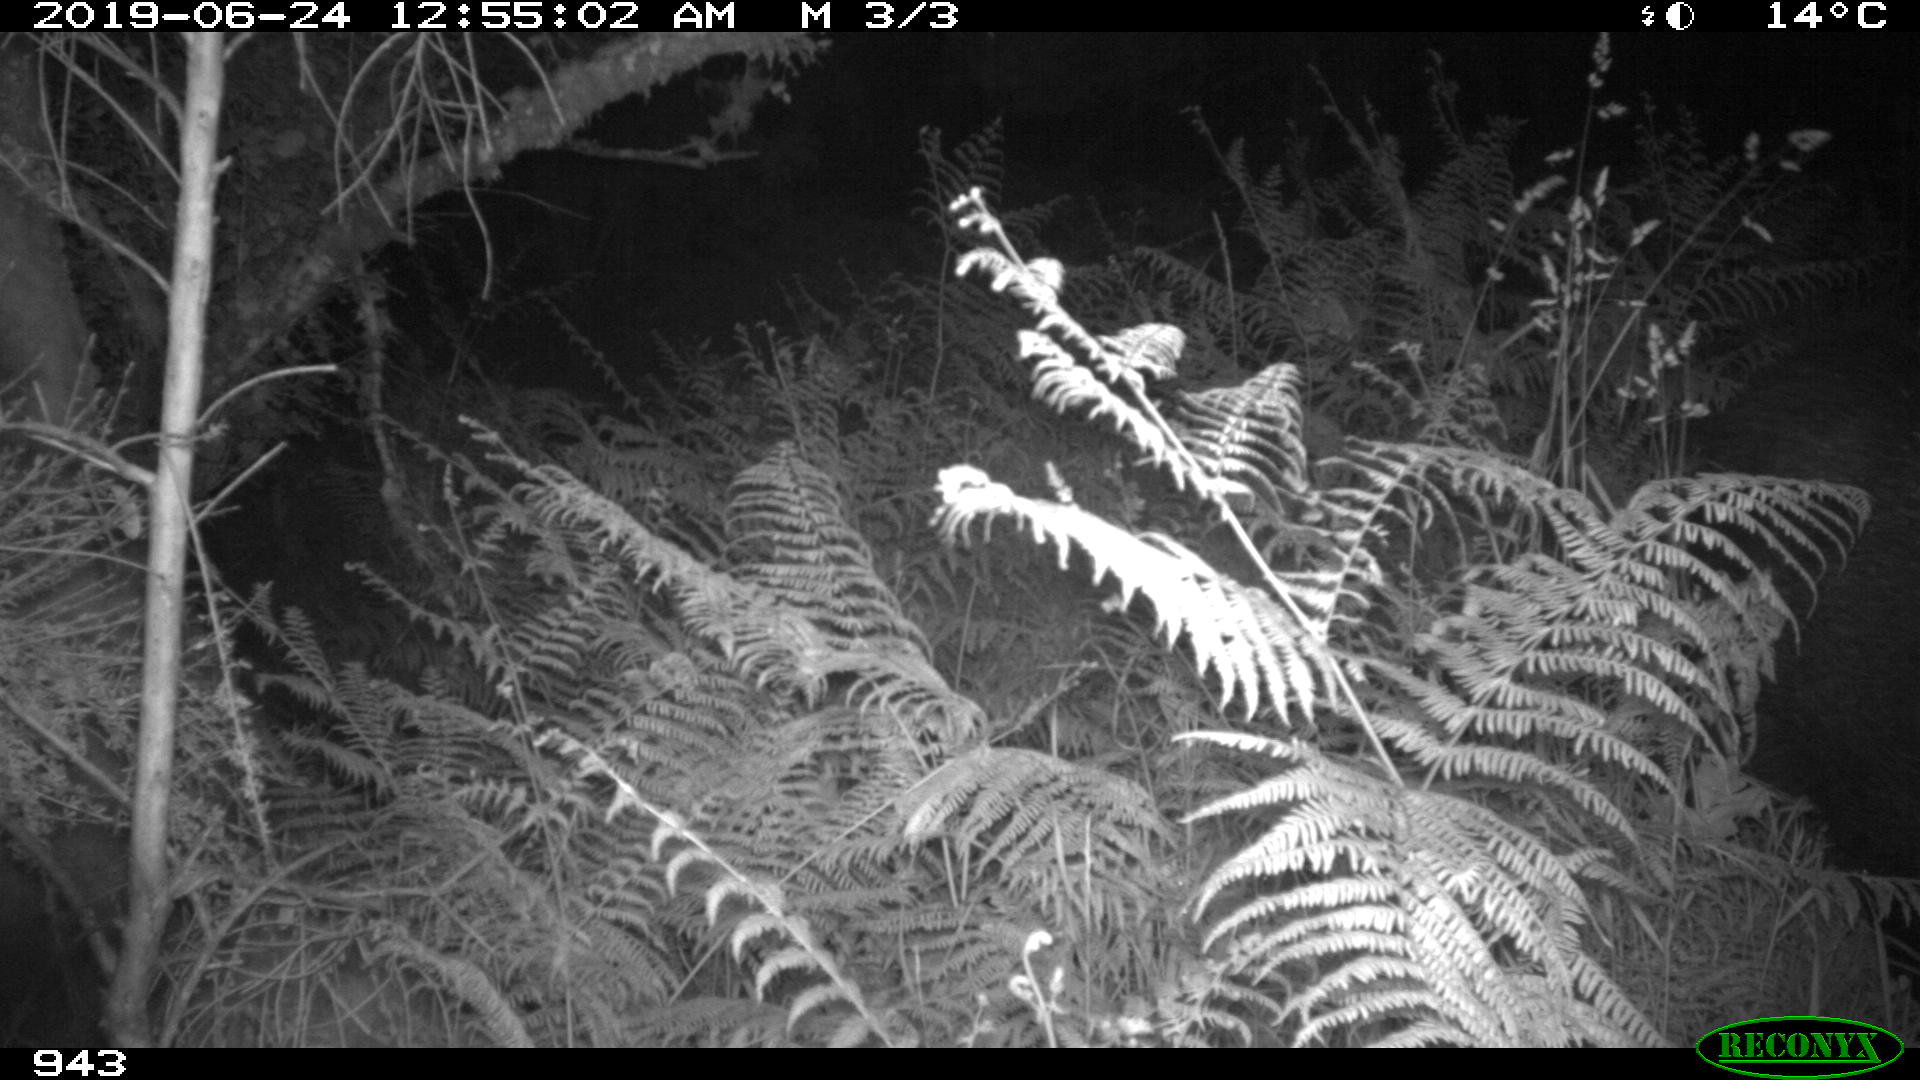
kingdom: Animalia
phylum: Chordata
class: Mammalia
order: Artiodactyla
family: Suidae
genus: Sus
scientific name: Sus scrofa
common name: Wild boar
